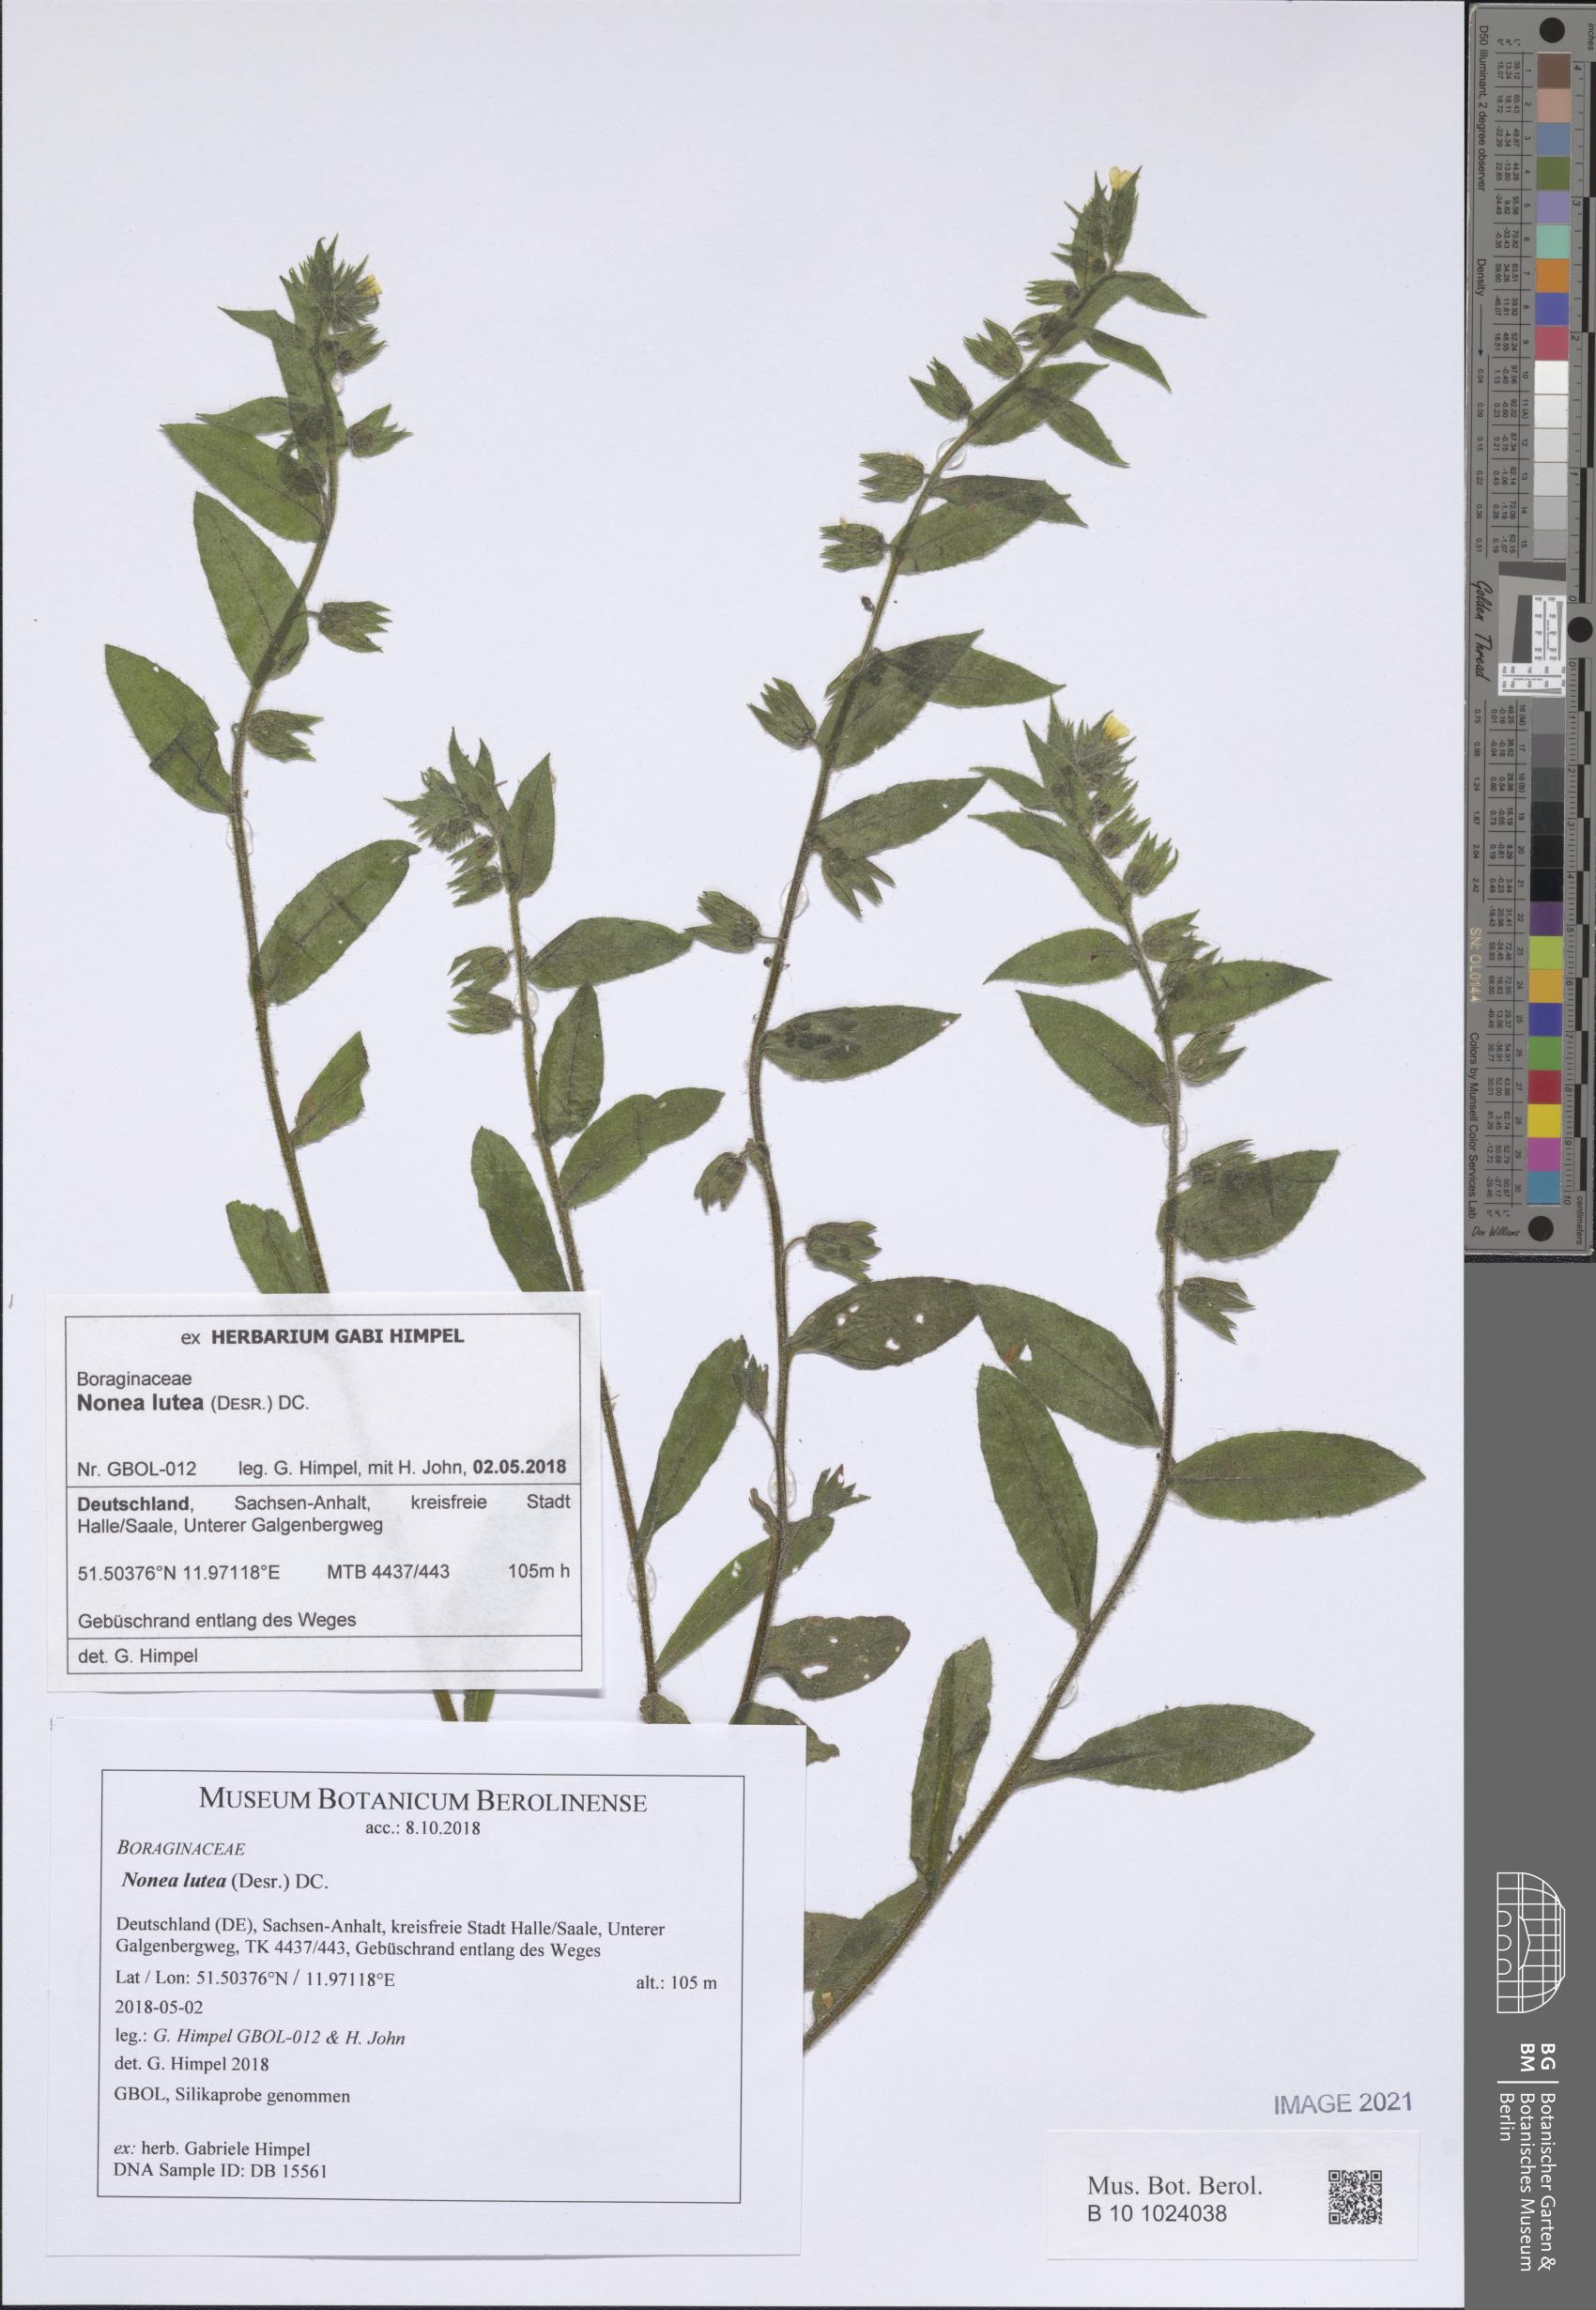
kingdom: Plantae
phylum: Tracheophyta
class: Magnoliopsida
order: Boraginales
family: Boraginaceae
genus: Nonea
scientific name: Nonea lutea
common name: Yellow nonea
